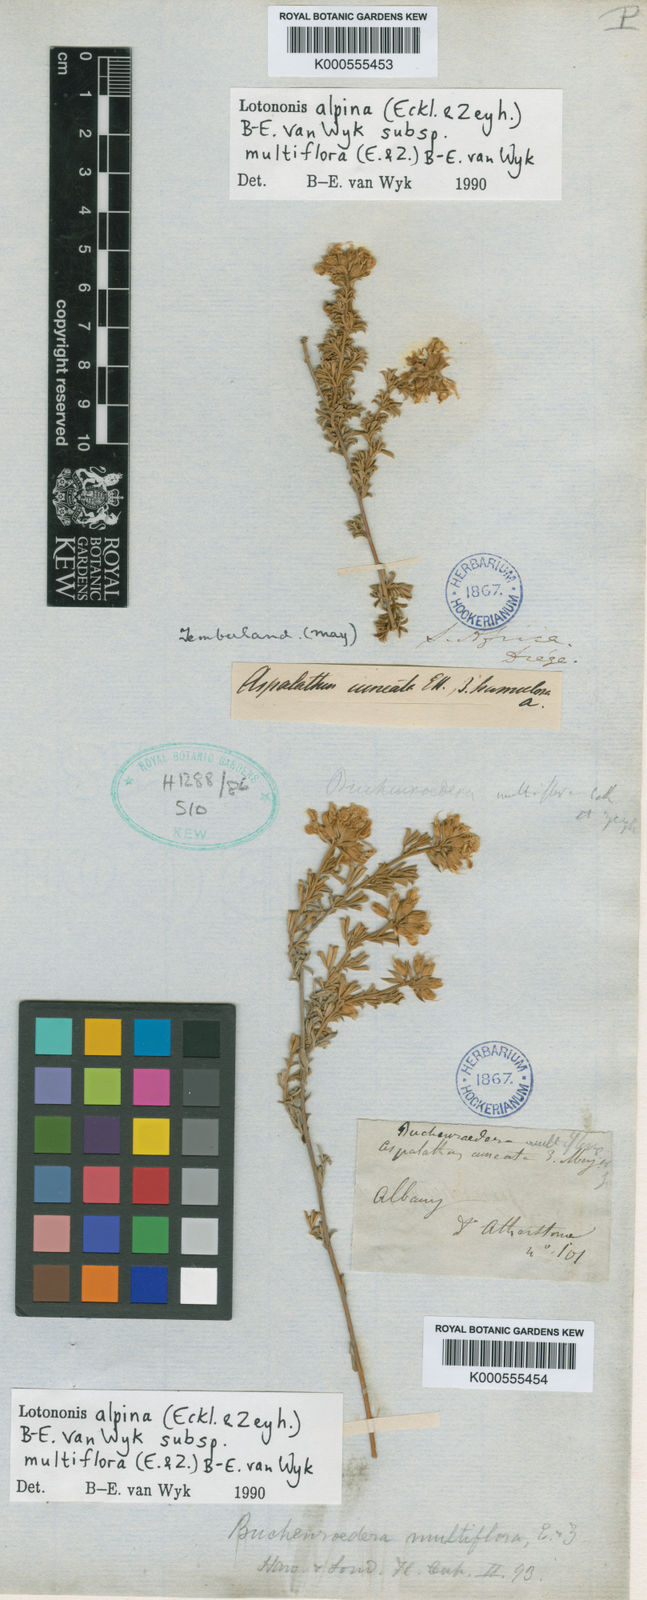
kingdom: Plantae
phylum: Tracheophyta
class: Magnoliopsida
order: Fabales
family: Fabaceae
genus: Lotononis
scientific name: Lotononis alpina
